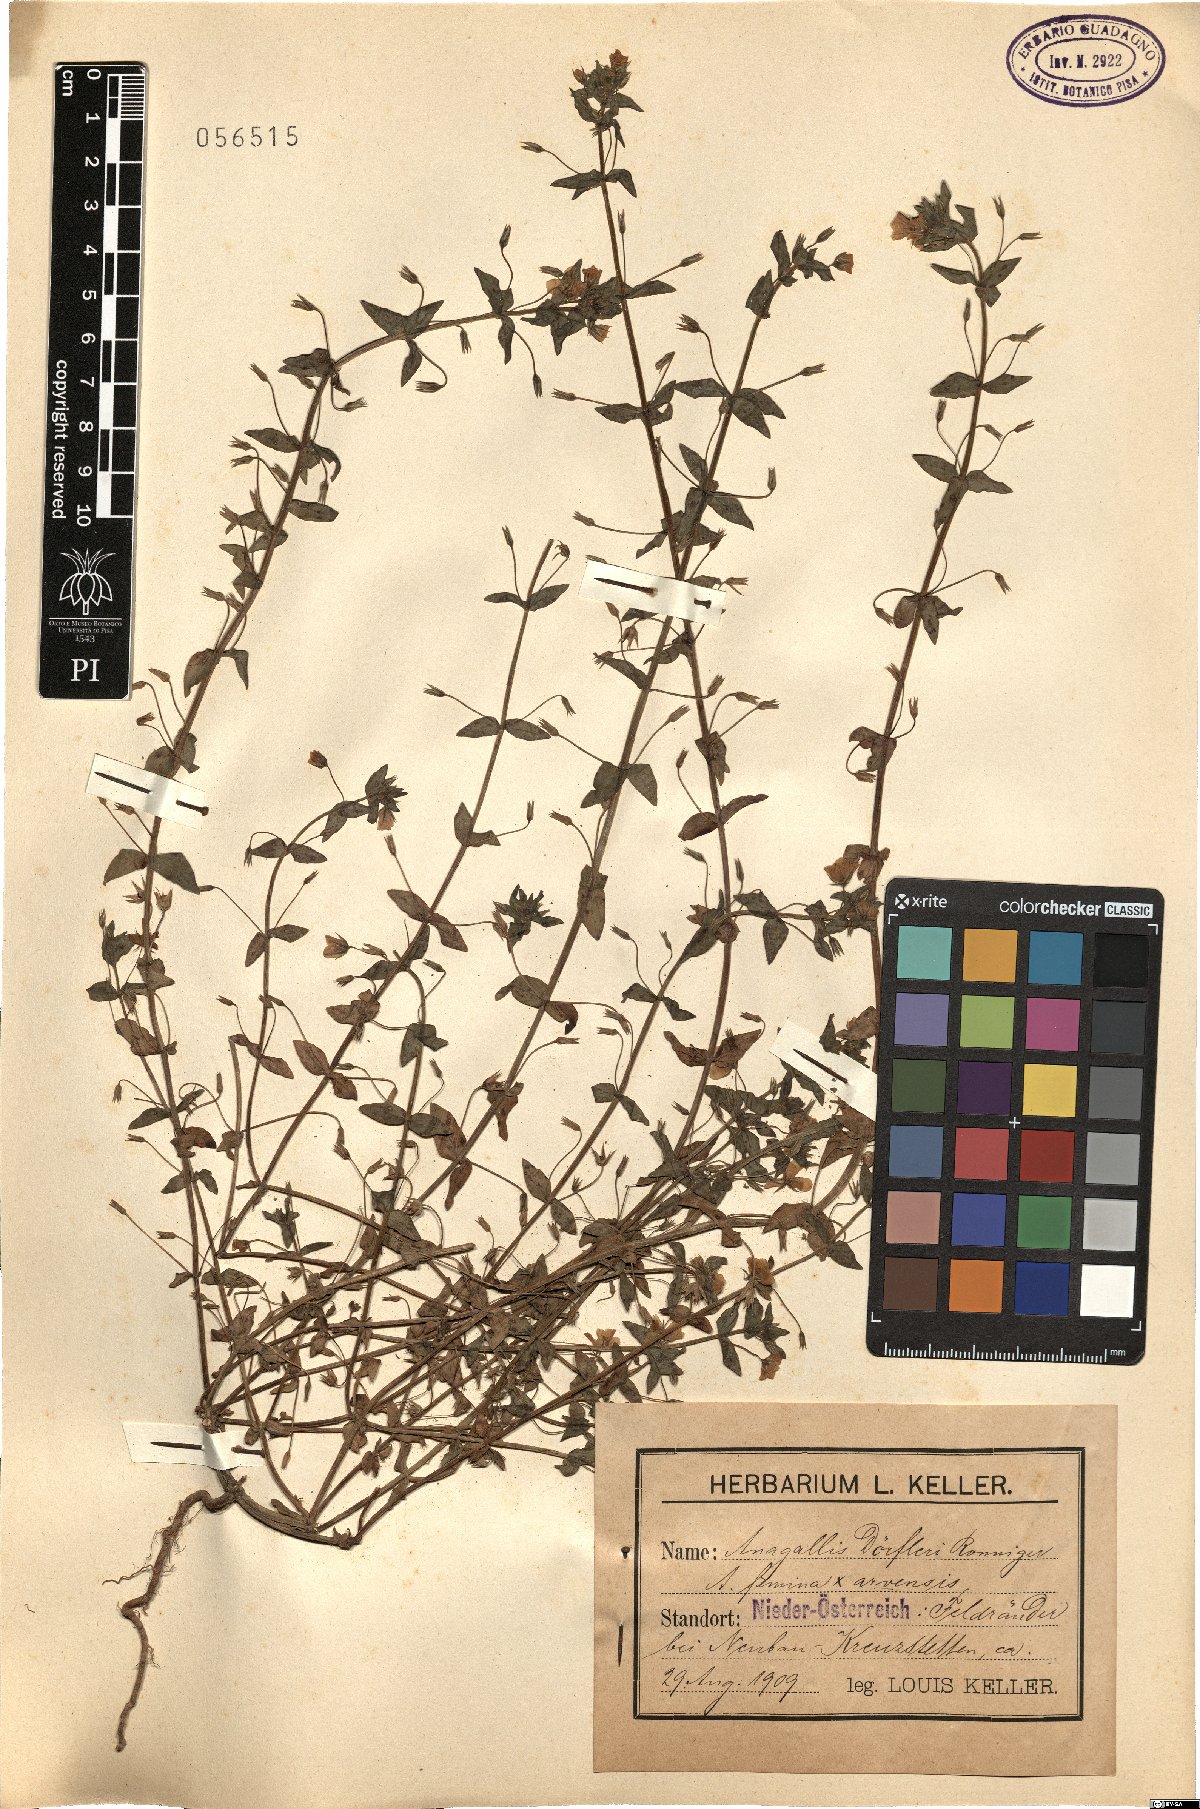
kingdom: Plantae
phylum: Tracheophyta
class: Magnoliopsida
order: Ericales
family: Primulaceae
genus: Lysimachia
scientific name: Lysimachia doerfleri
